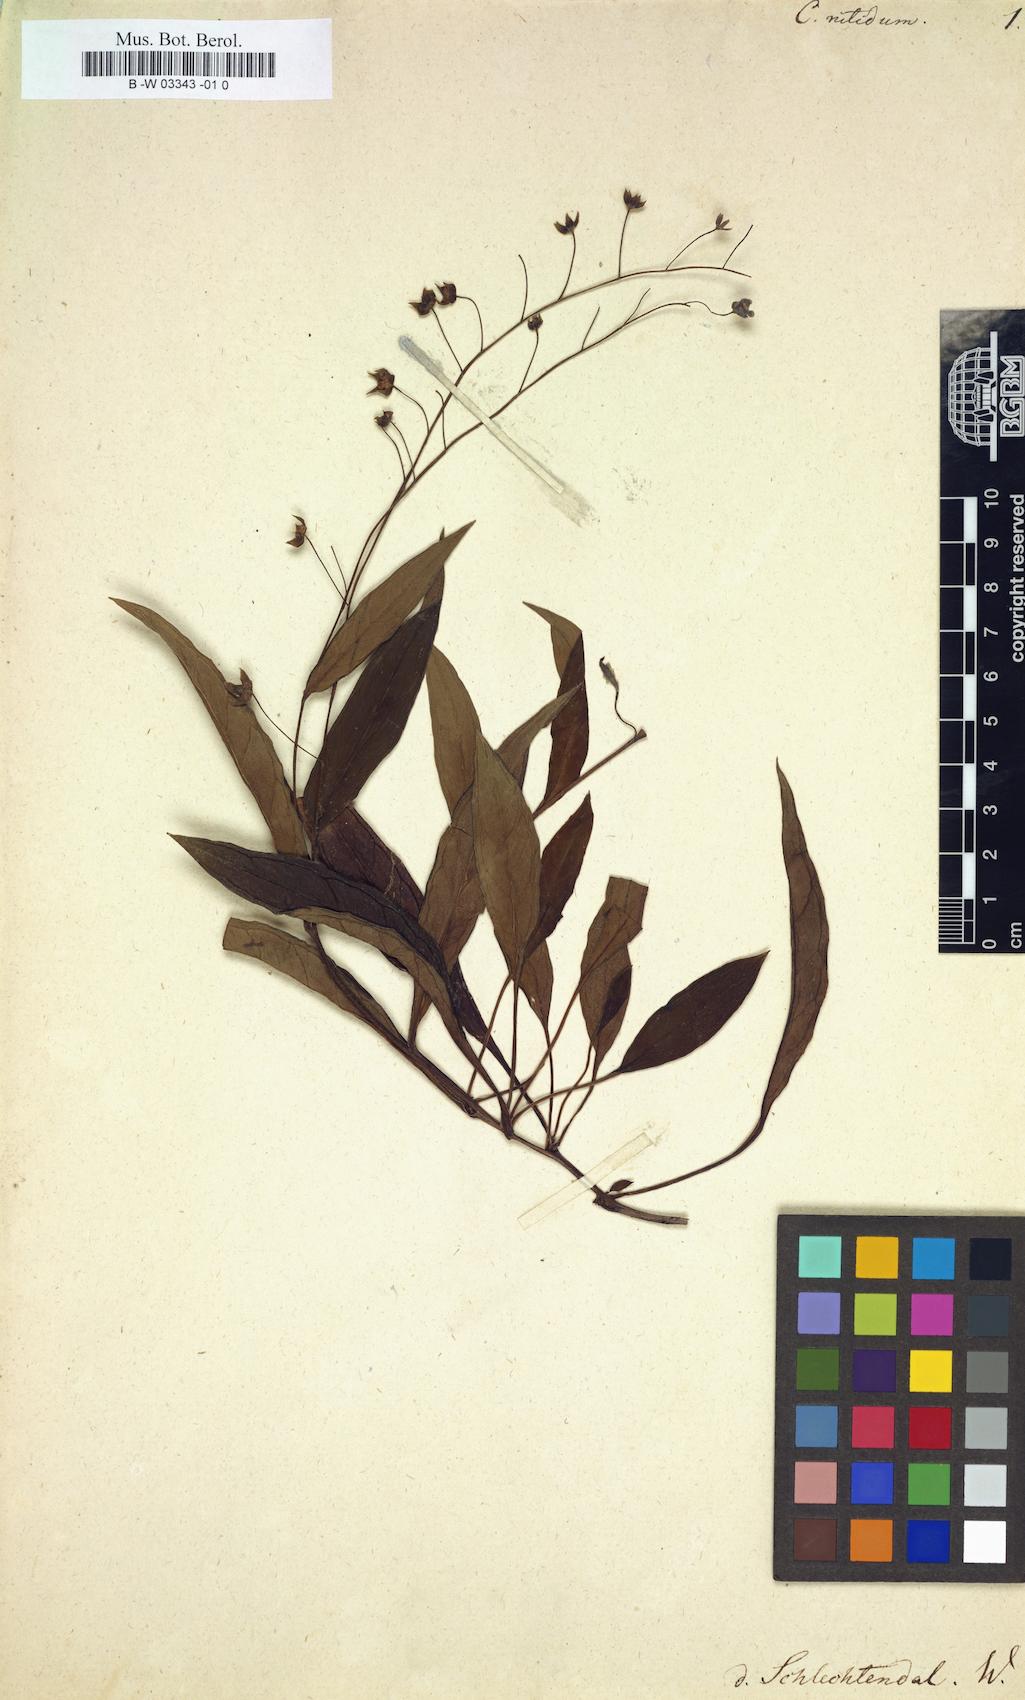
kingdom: Plantae
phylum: Tracheophyta
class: Magnoliopsida
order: Boraginales
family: Boraginaceae
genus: Omphalodes
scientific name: Omphalodes nitida
